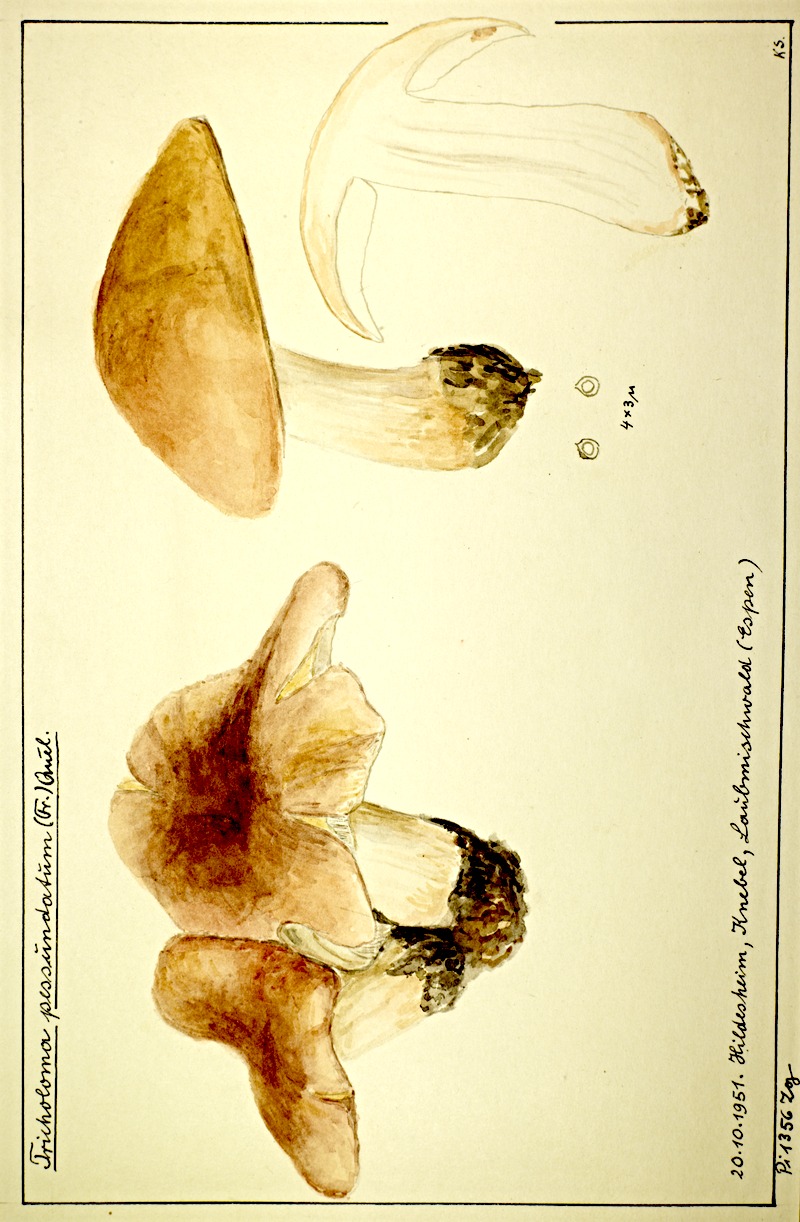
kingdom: Fungi
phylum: Basidiomycota
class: Agaricomycetes
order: Agaricales
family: Tricholomataceae
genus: Tricholoma
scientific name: Tricholoma pessundatum
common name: Tacked knight
